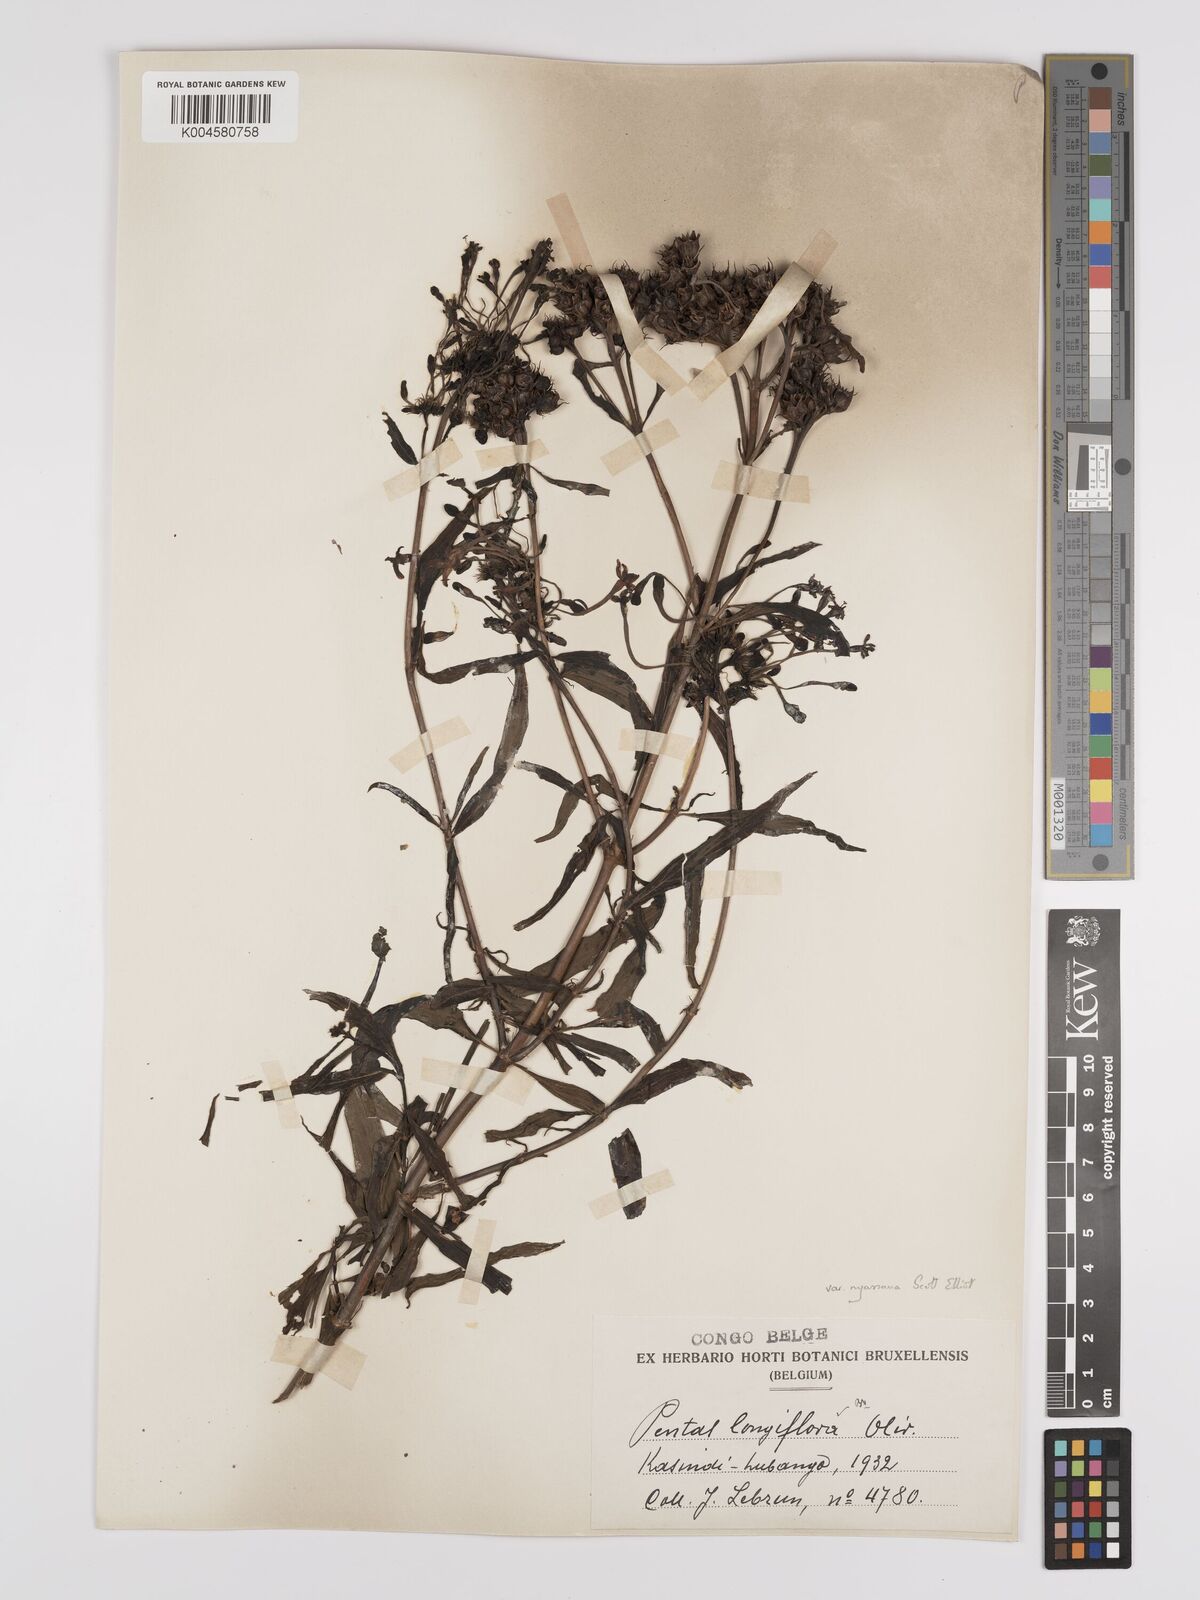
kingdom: Plantae
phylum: Tracheophyta
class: Magnoliopsida
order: Gentianales
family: Rubiaceae
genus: Dolichopentas
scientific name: Dolichopentas longiflora
